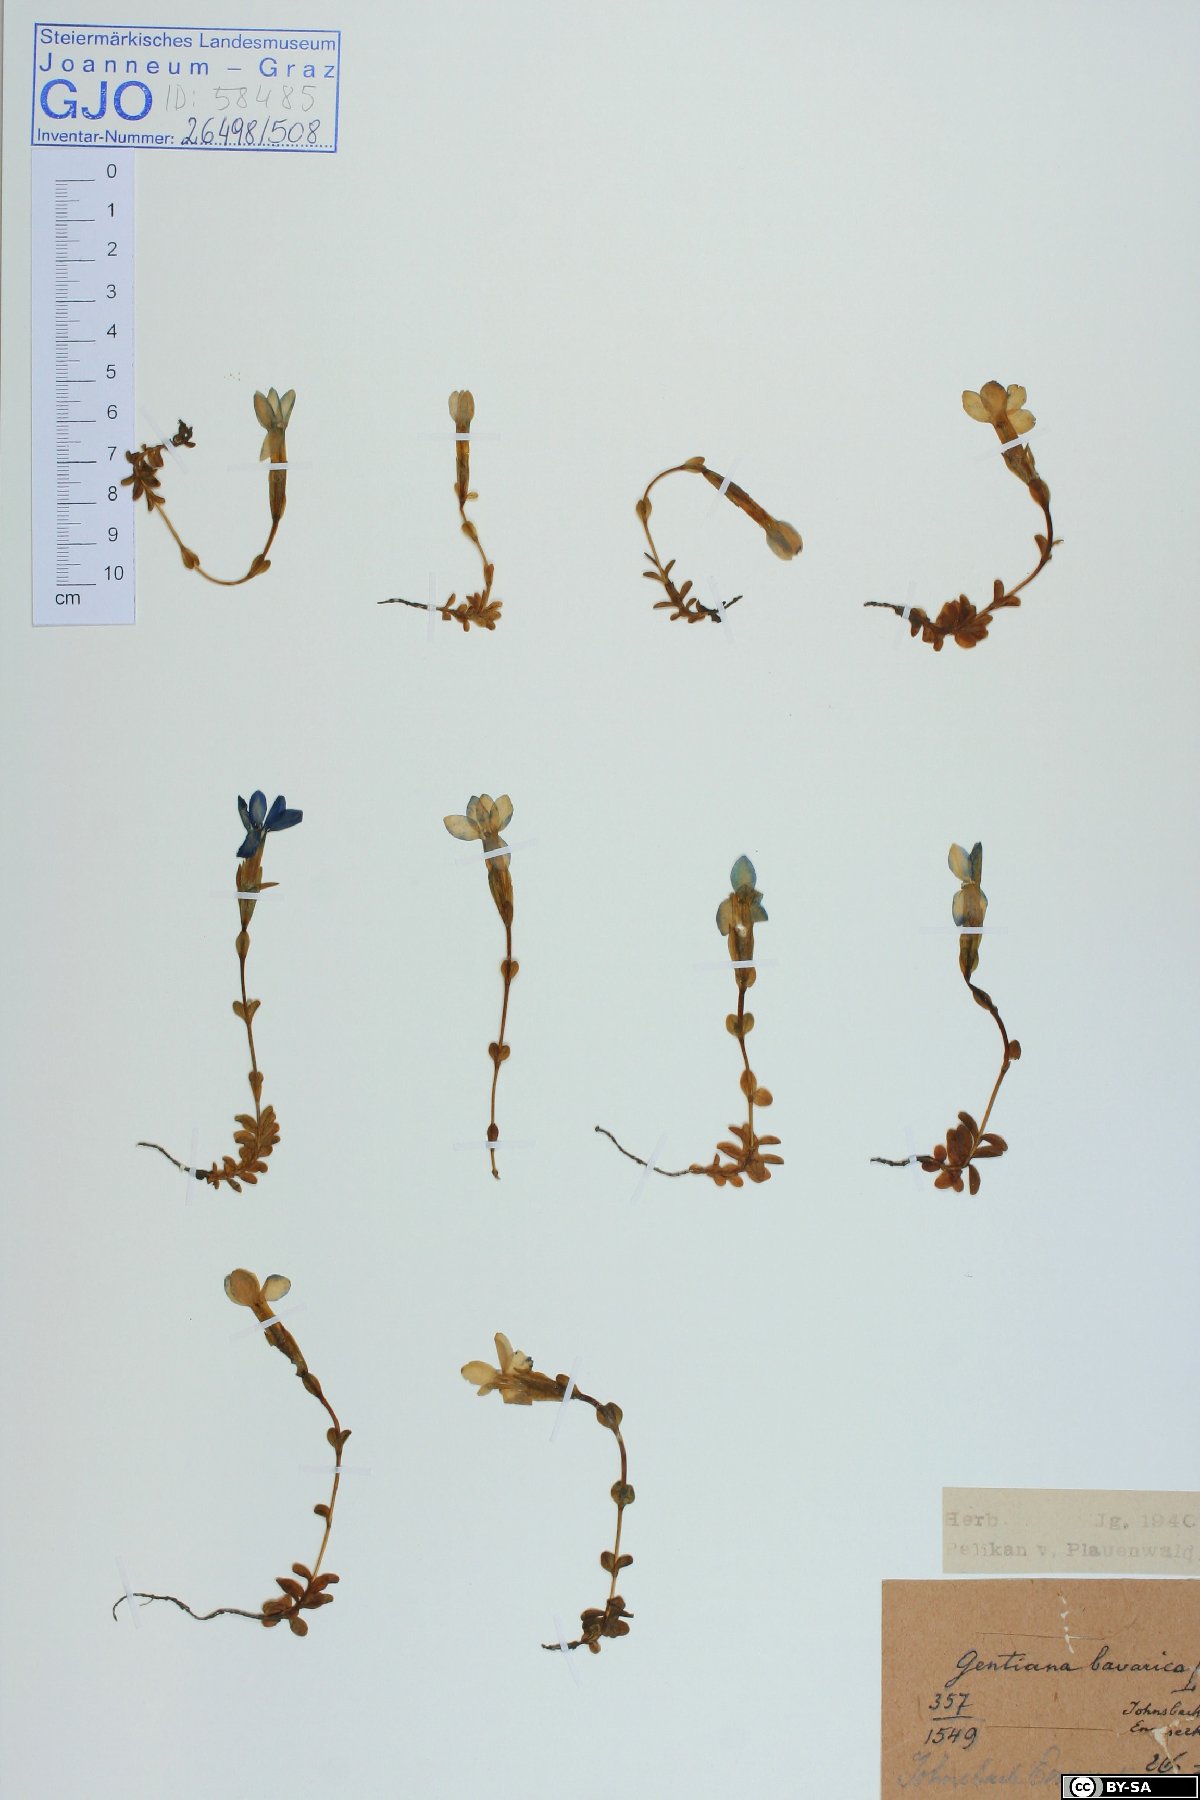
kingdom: Plantae
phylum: Tracheophyta
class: Magnoliopsida
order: Gentianales
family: Gentianaceae
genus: Gentiana
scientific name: Gentiana bavarica
